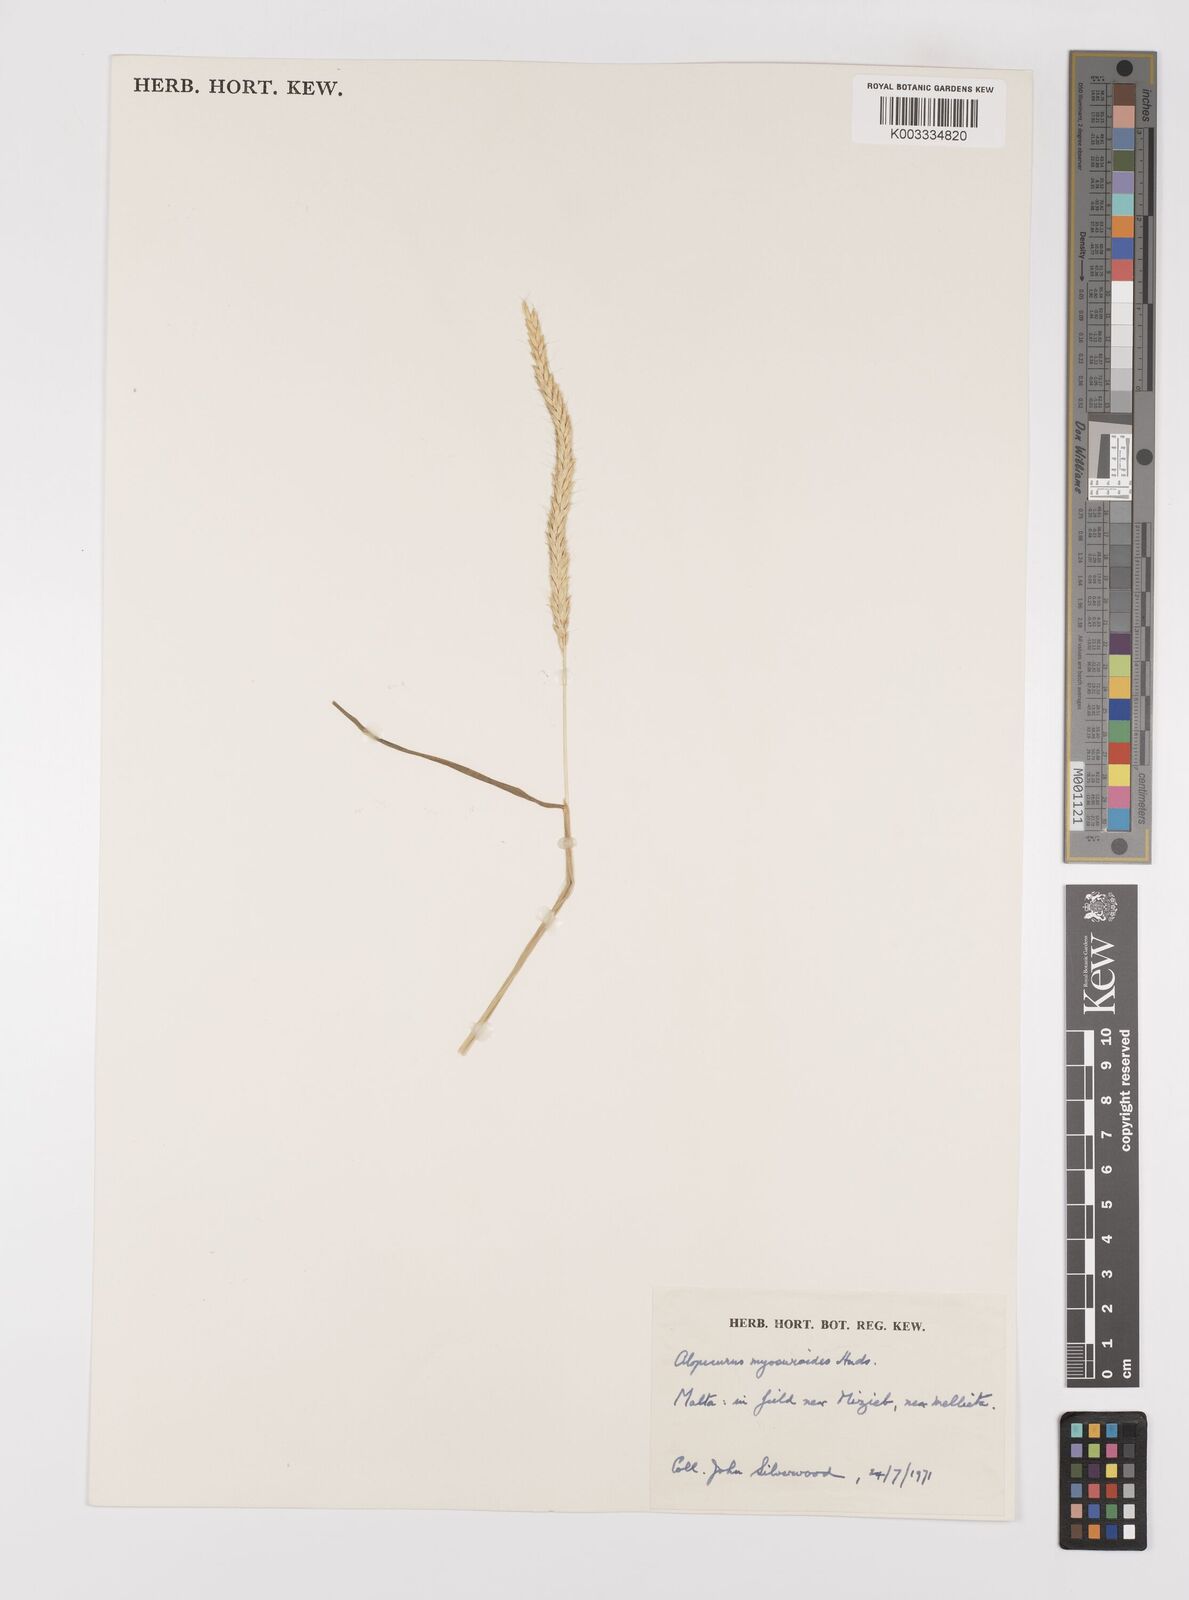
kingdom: Plantae
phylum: Tracheophyta
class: Liliopsida
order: Poales
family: Poaceae
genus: Alopecurus
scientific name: Alopecurus myosuroides
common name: Black-grass
